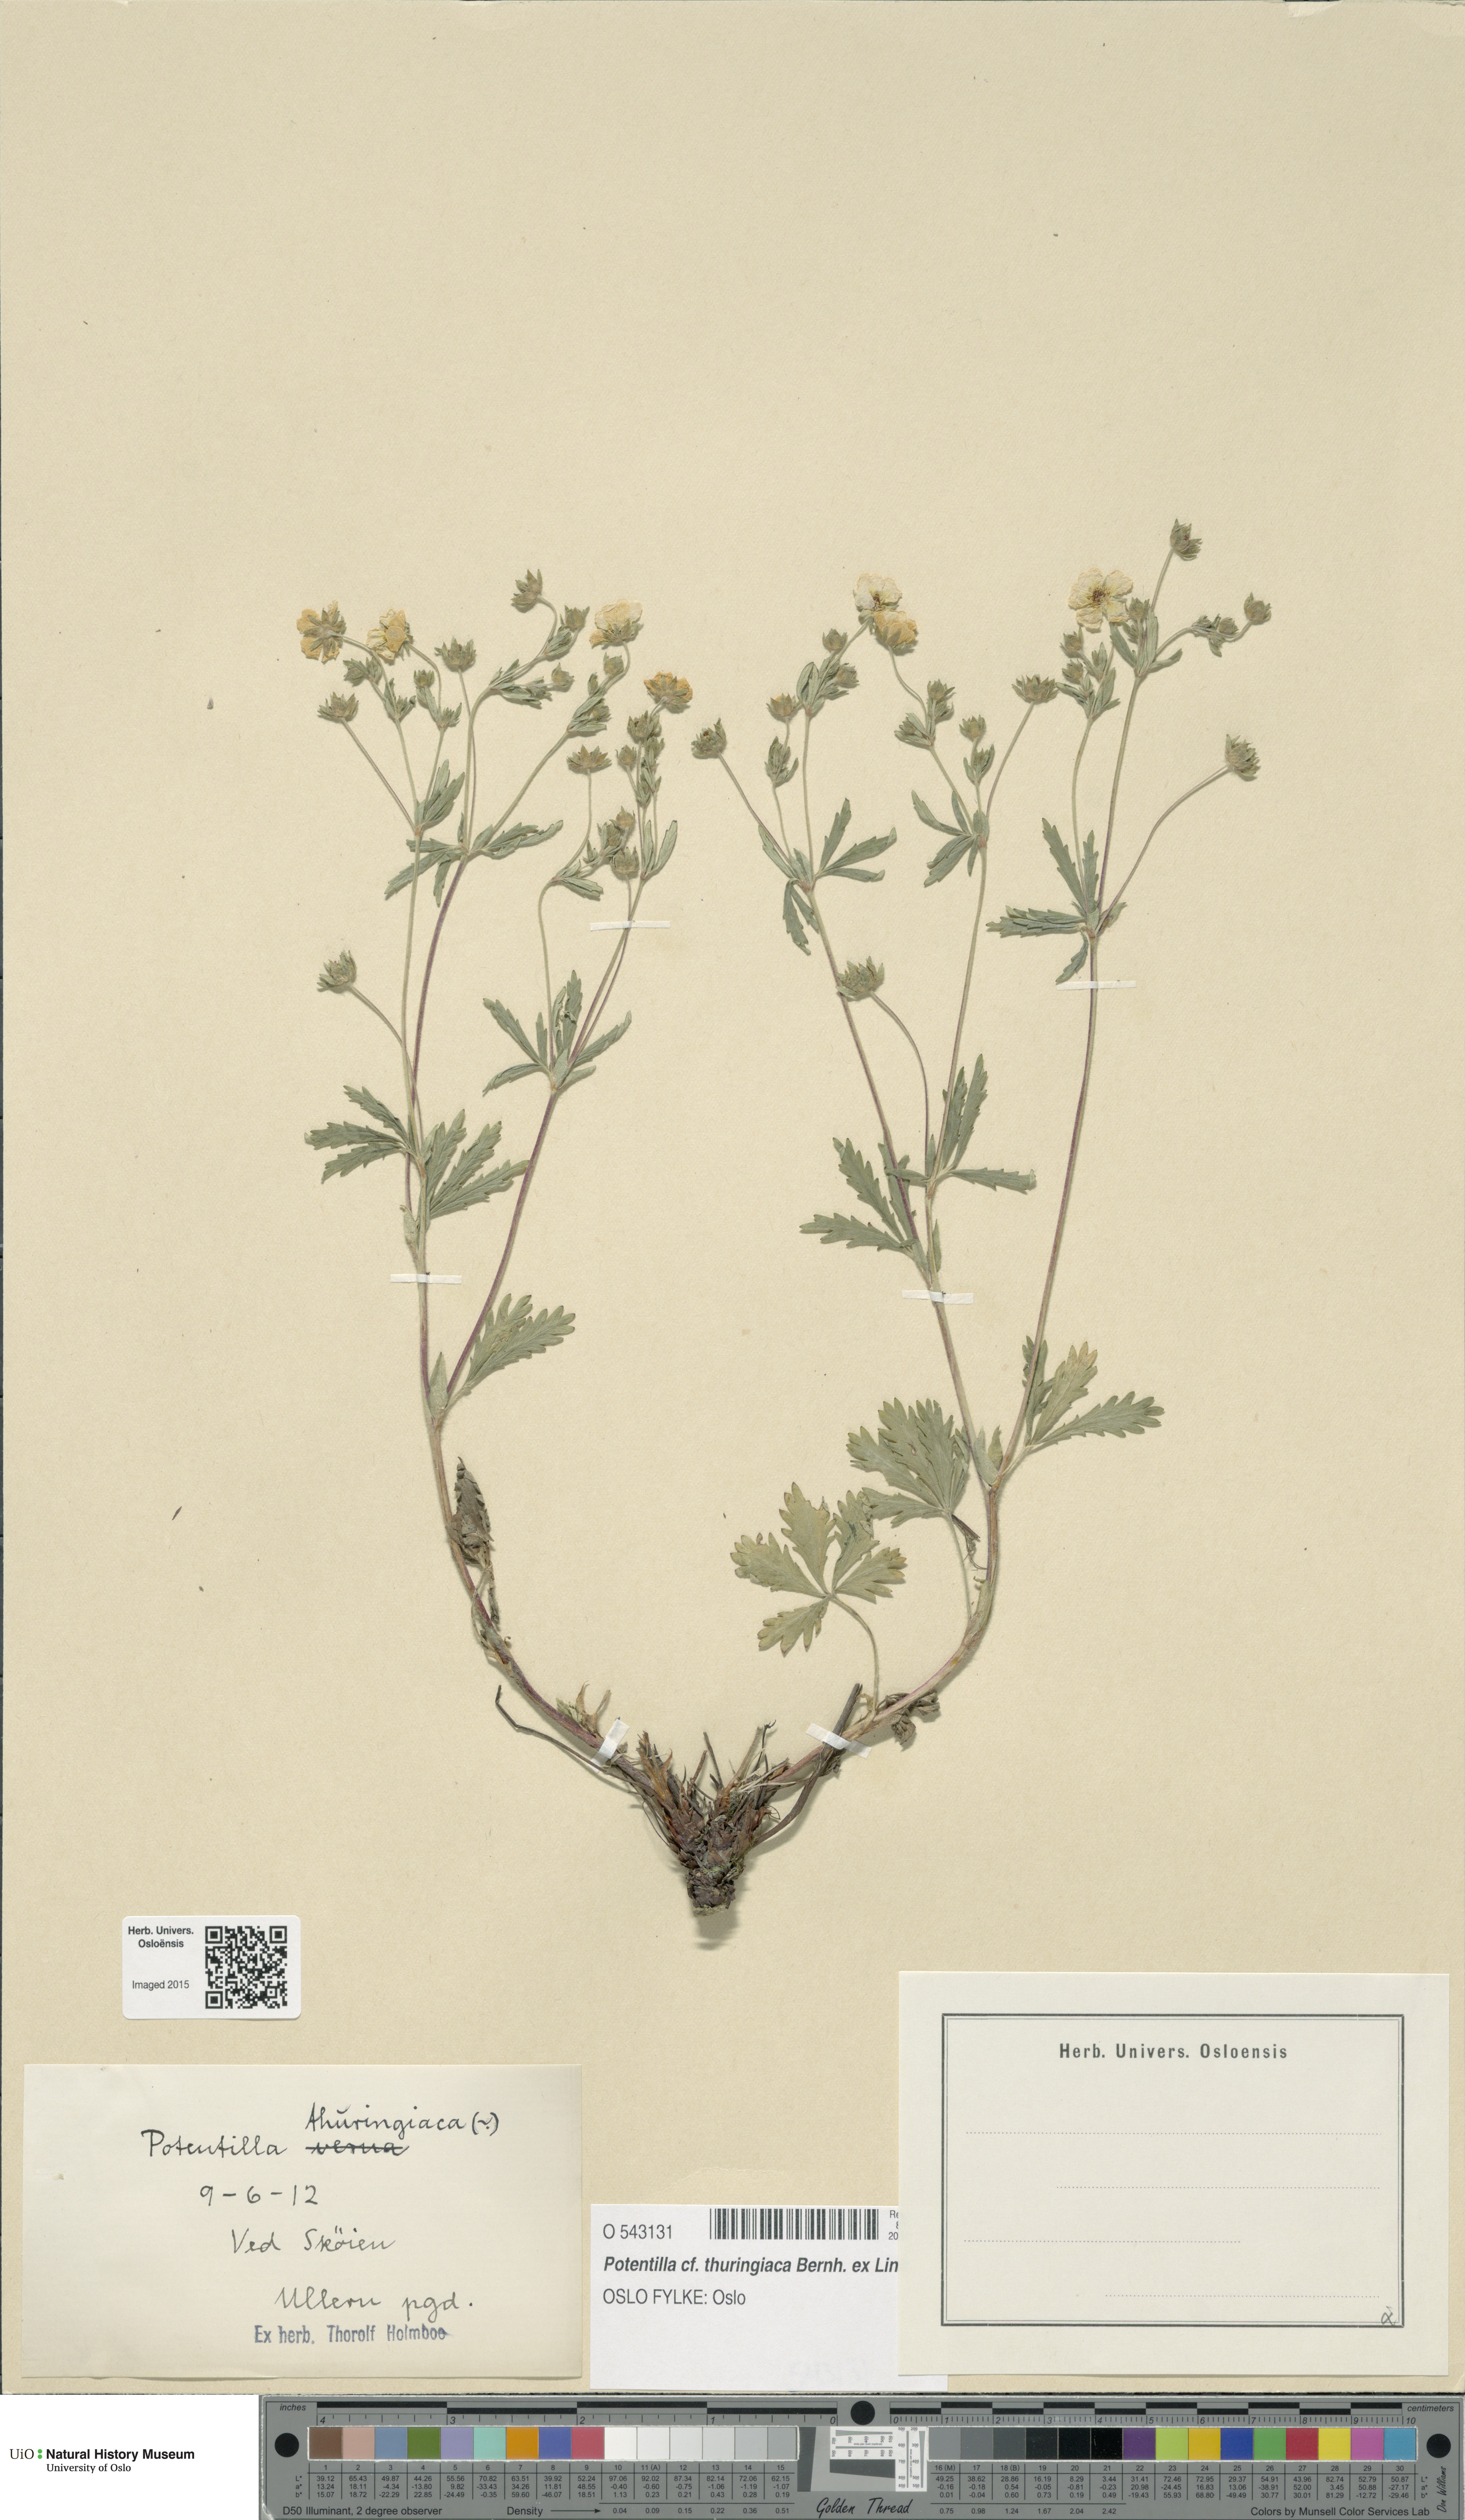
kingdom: Plantae
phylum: Tracheophyta
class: Magnoliopsida
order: Rosales
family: Rosaceae
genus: Potentilla
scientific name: Potentilla thuringiaca
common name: European cinquefoil
